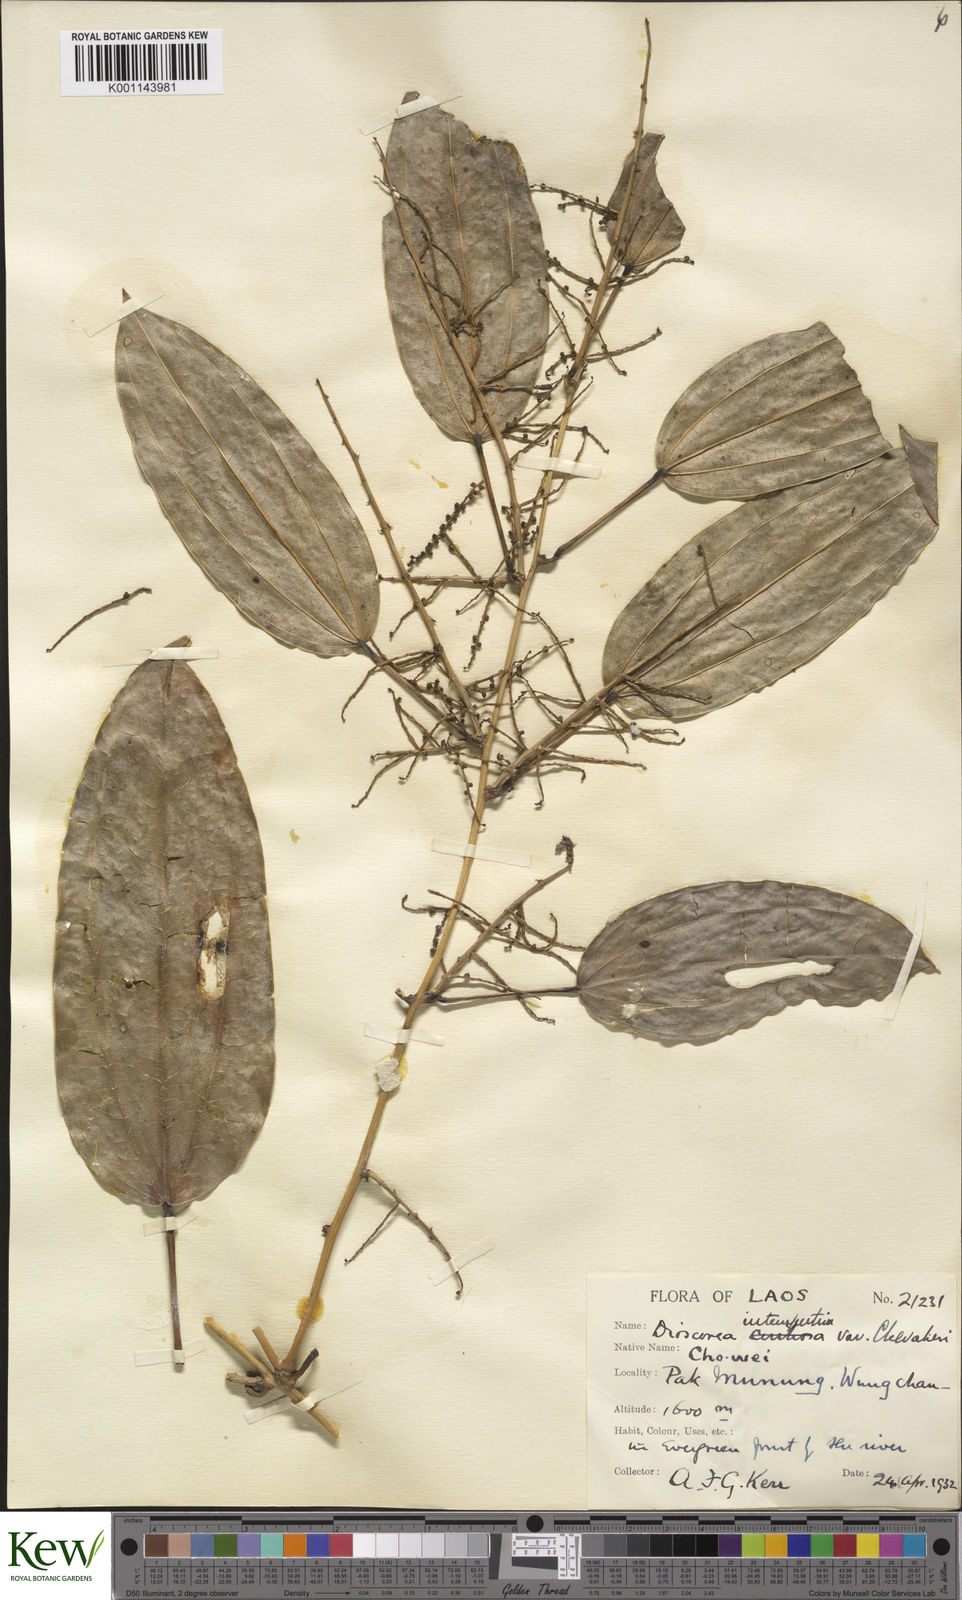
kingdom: Plantae
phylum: Tracheophyta
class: Liliopsida
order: Dioscoreales
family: Dioscoreaceae
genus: Dioscorea
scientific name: Dioscorea cirrhosa
